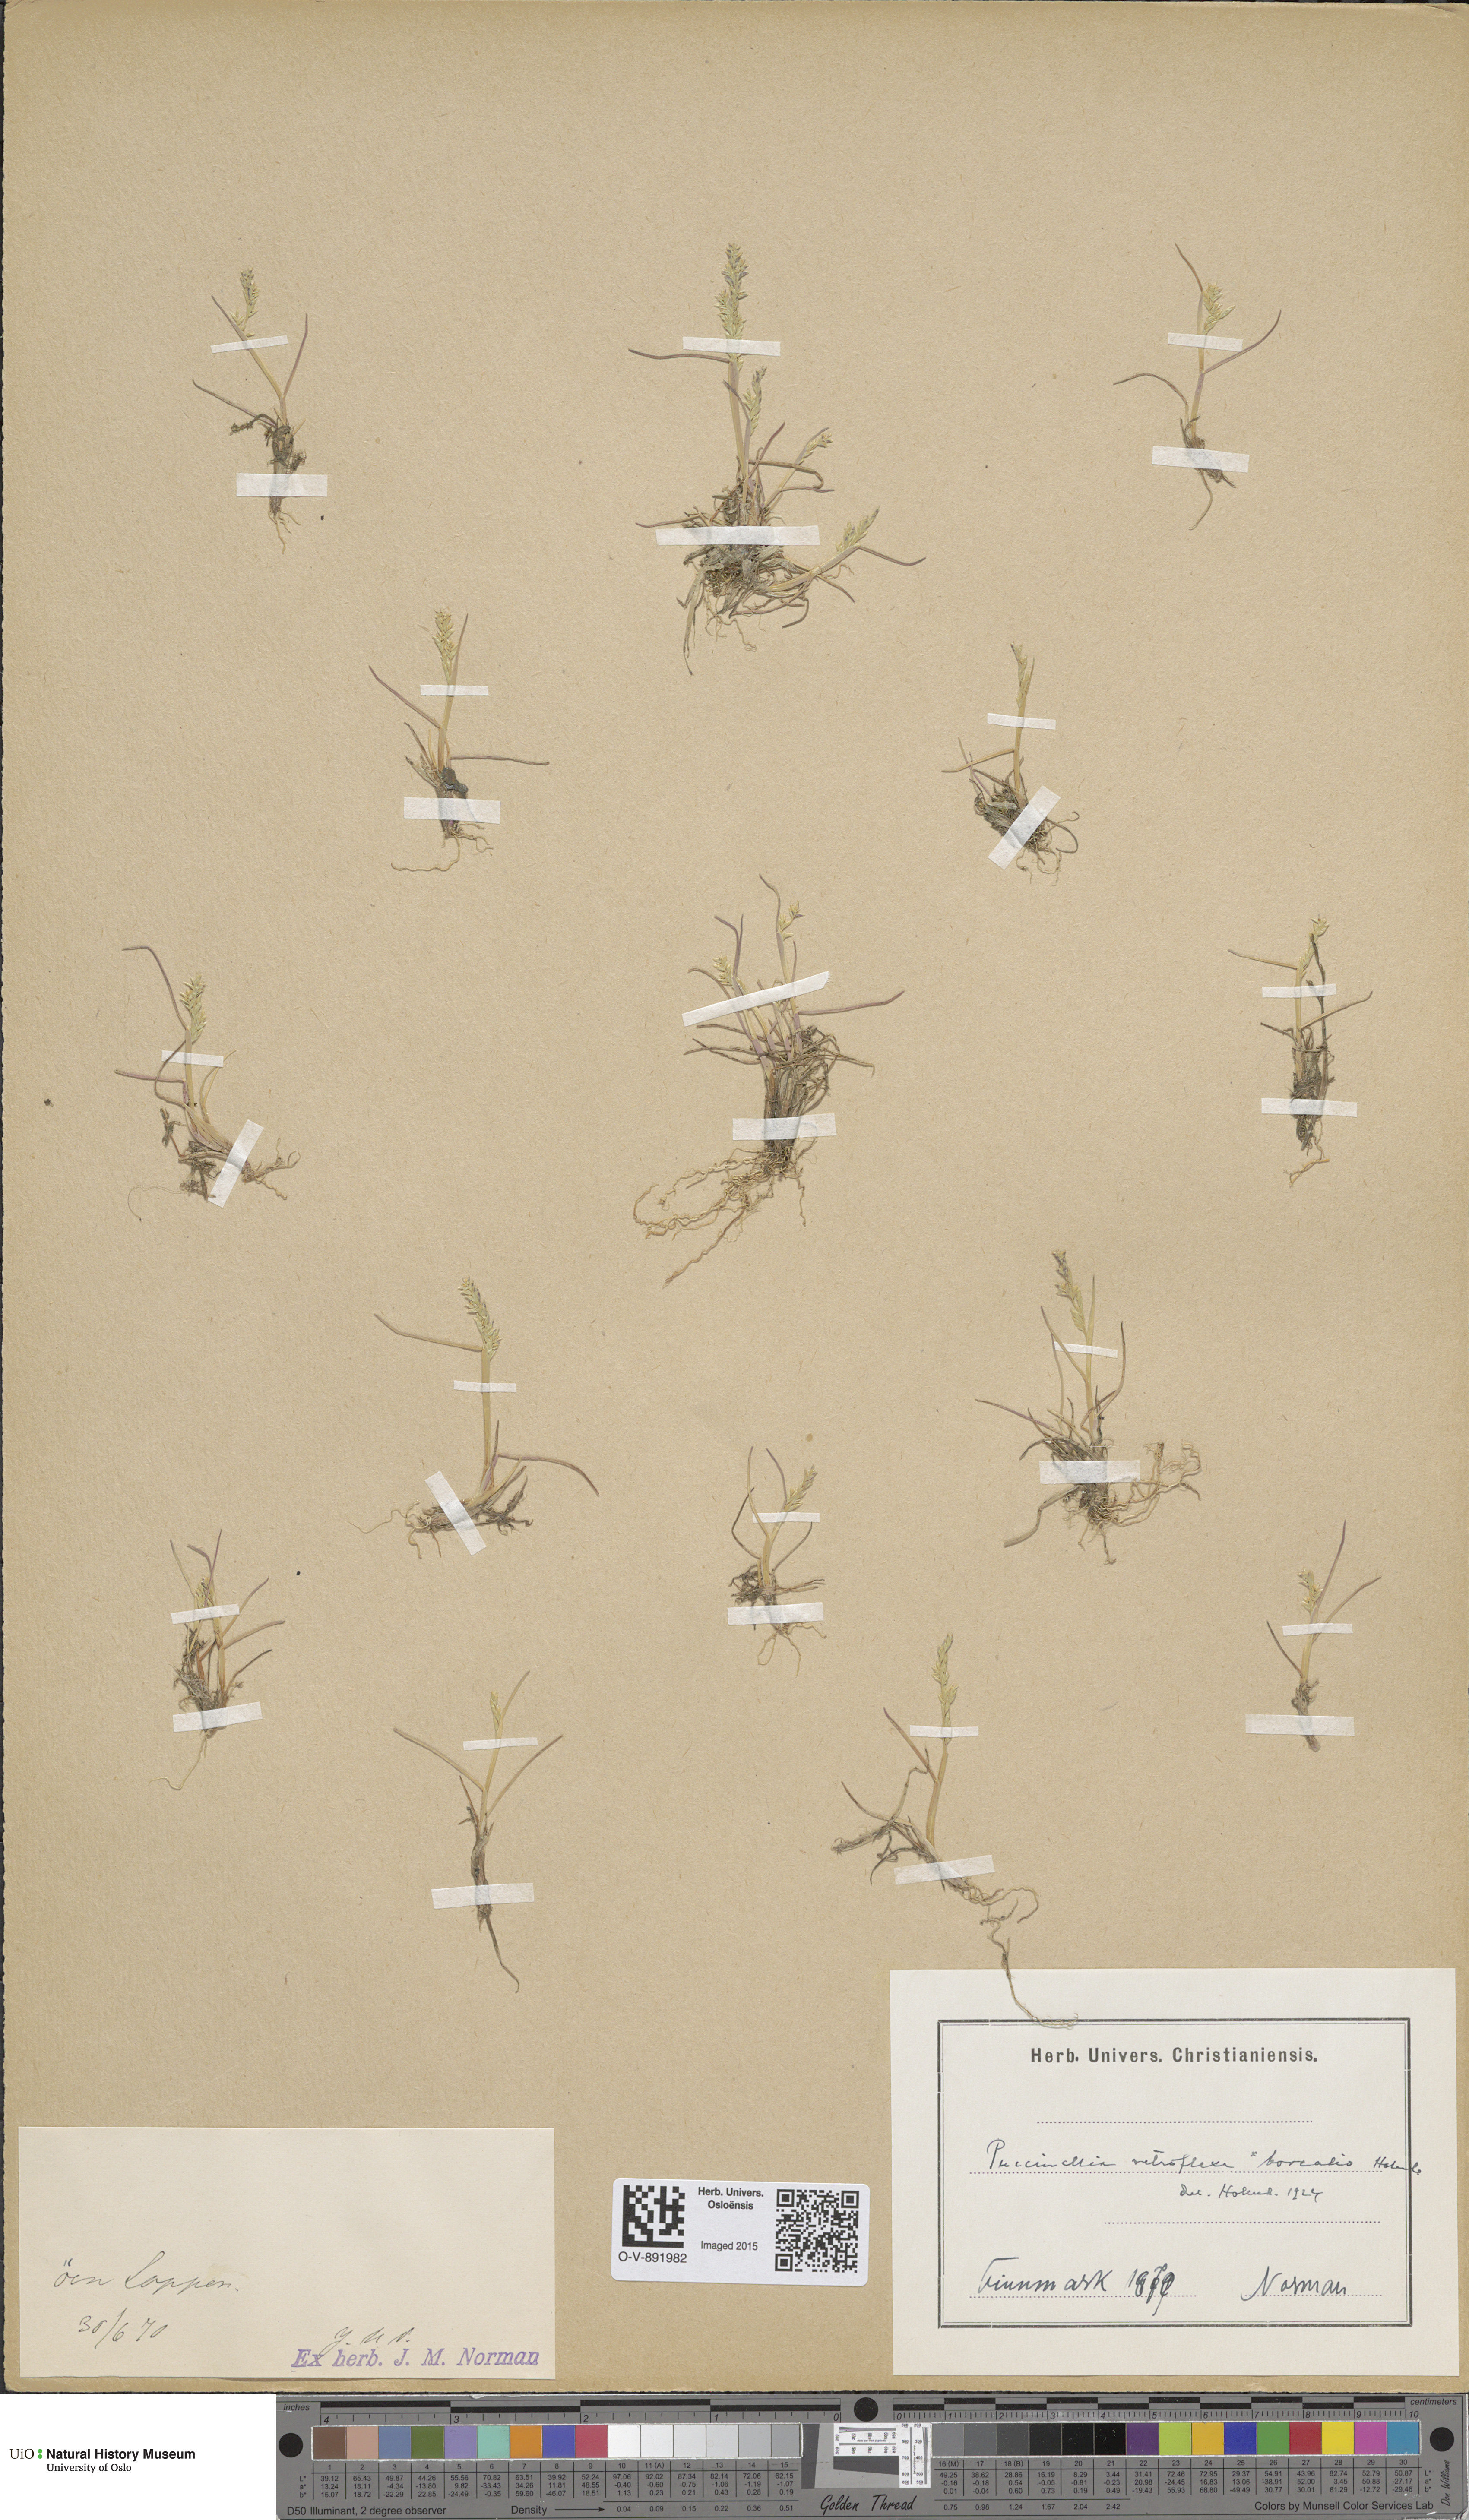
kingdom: Plantae
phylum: Tracheophyta
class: Liliopsida
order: Poales
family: Poaceae
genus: Puccinellia
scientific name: Puccinellia distans
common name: Weeping alkaligrass
